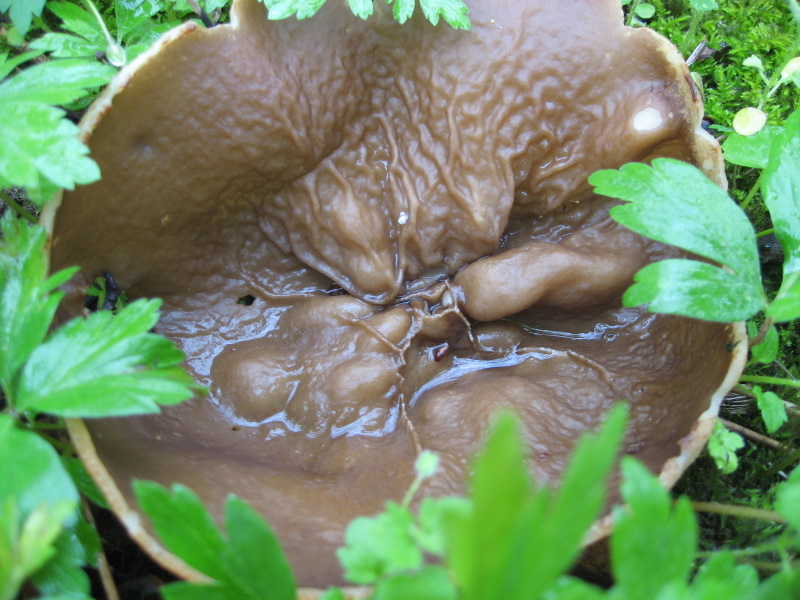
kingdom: Fungi
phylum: Ascomycota
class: Pezizomycetes
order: Pezizales
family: Morchellaceae
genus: Disciotis
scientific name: Disciotis venosa
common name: klor-bægermorkel
